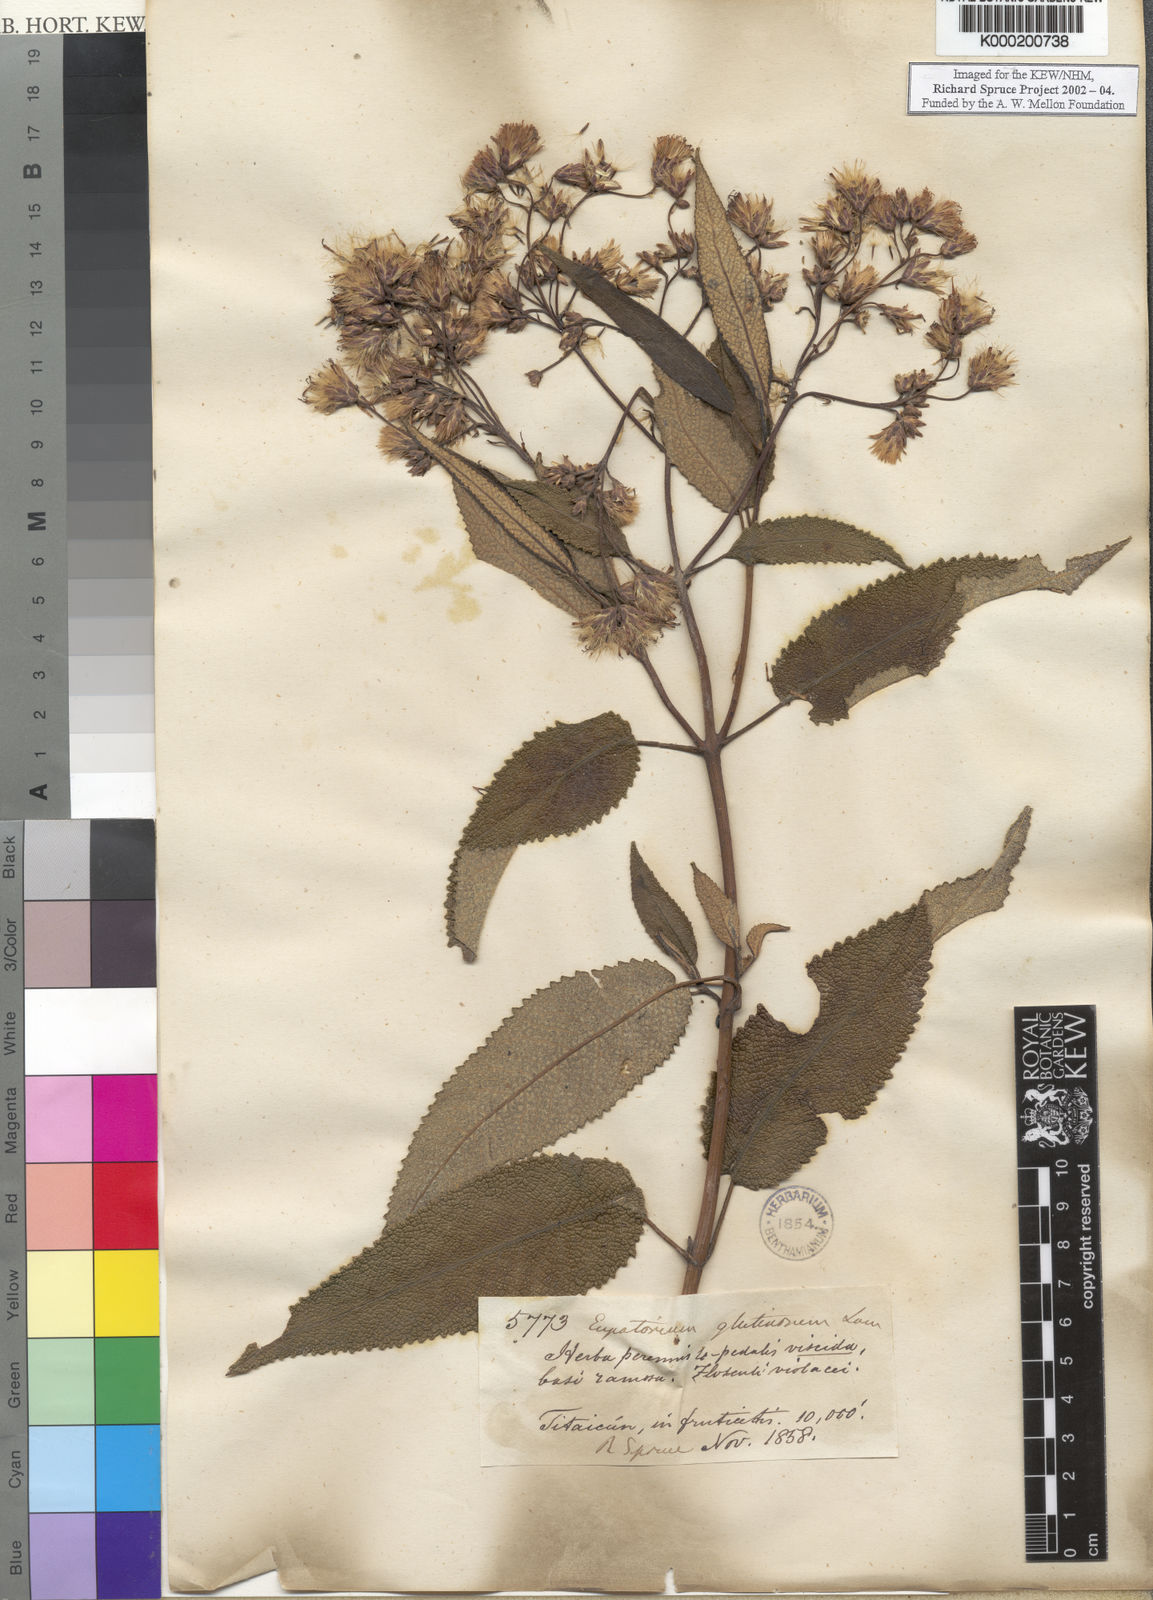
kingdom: Plantae
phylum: Tracheophyta
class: Magnoliopsida
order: Asterales
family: Asteraceae
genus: Aristeguietia
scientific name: Aristeguietia glutinosa
